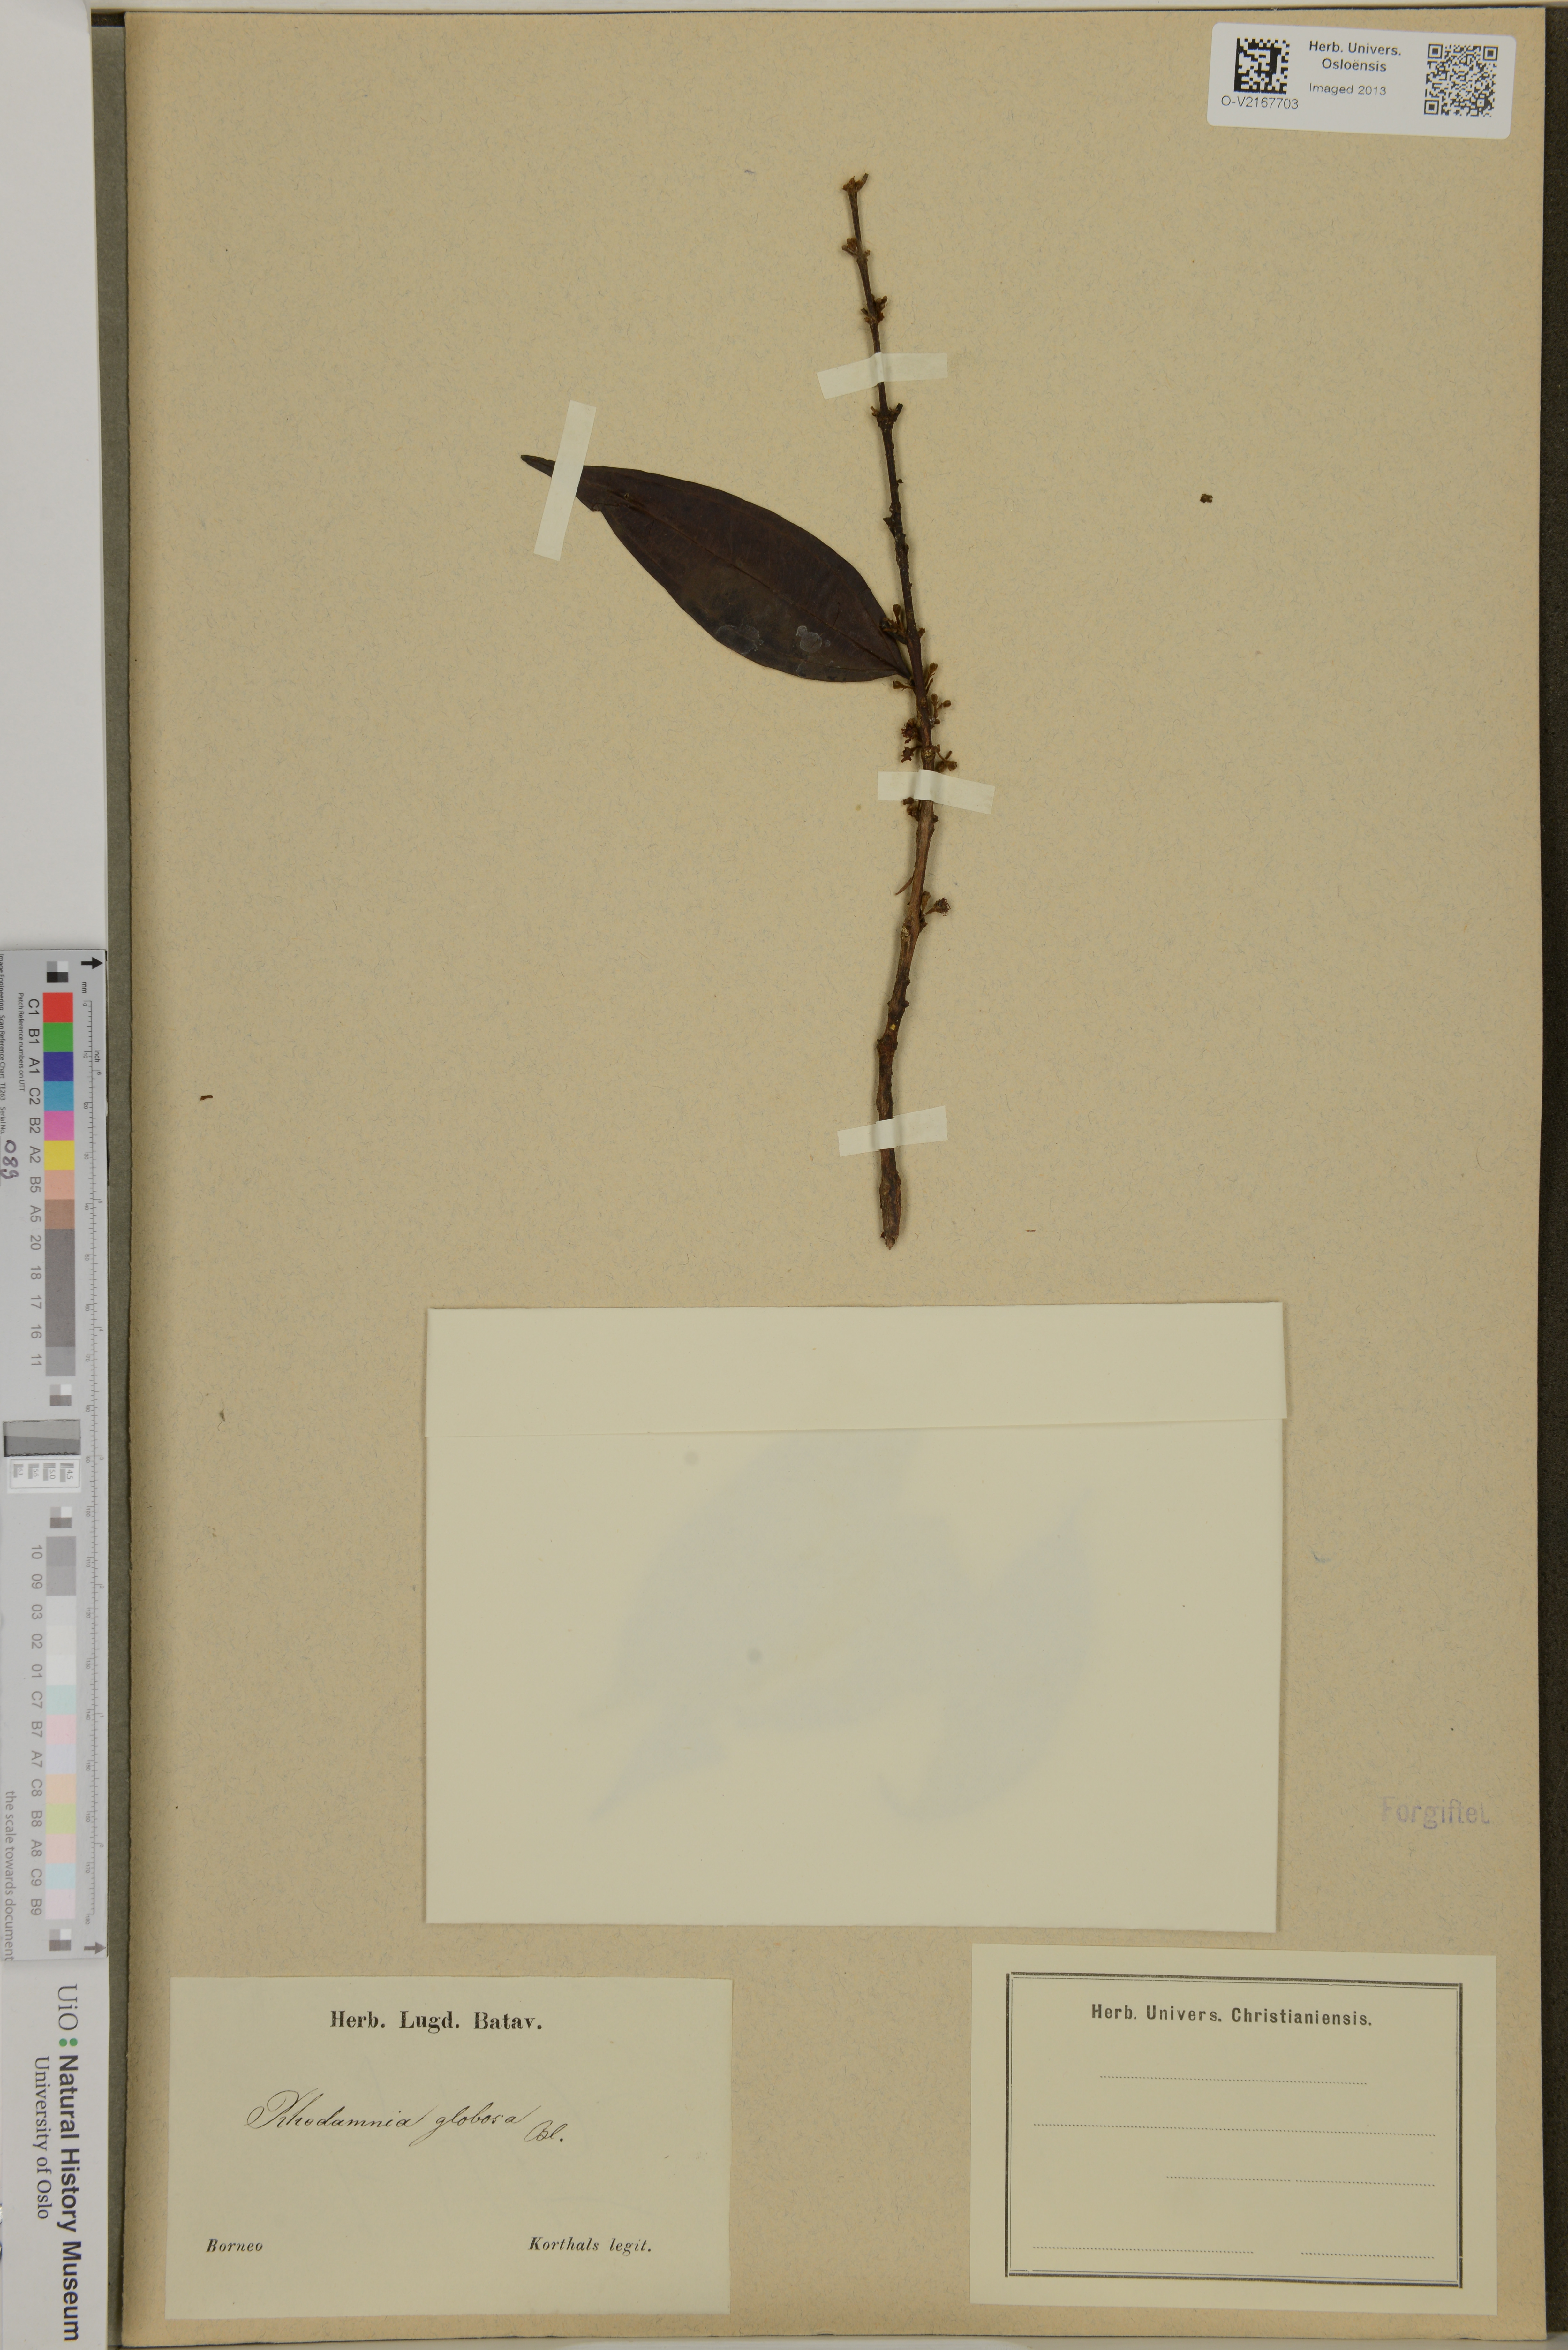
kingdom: Plantae
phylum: Tracheophyta
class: Magnoliopsida
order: Myrtales
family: Myrtaceae
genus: Rhodamnia
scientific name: Rhodamnia cinerea
